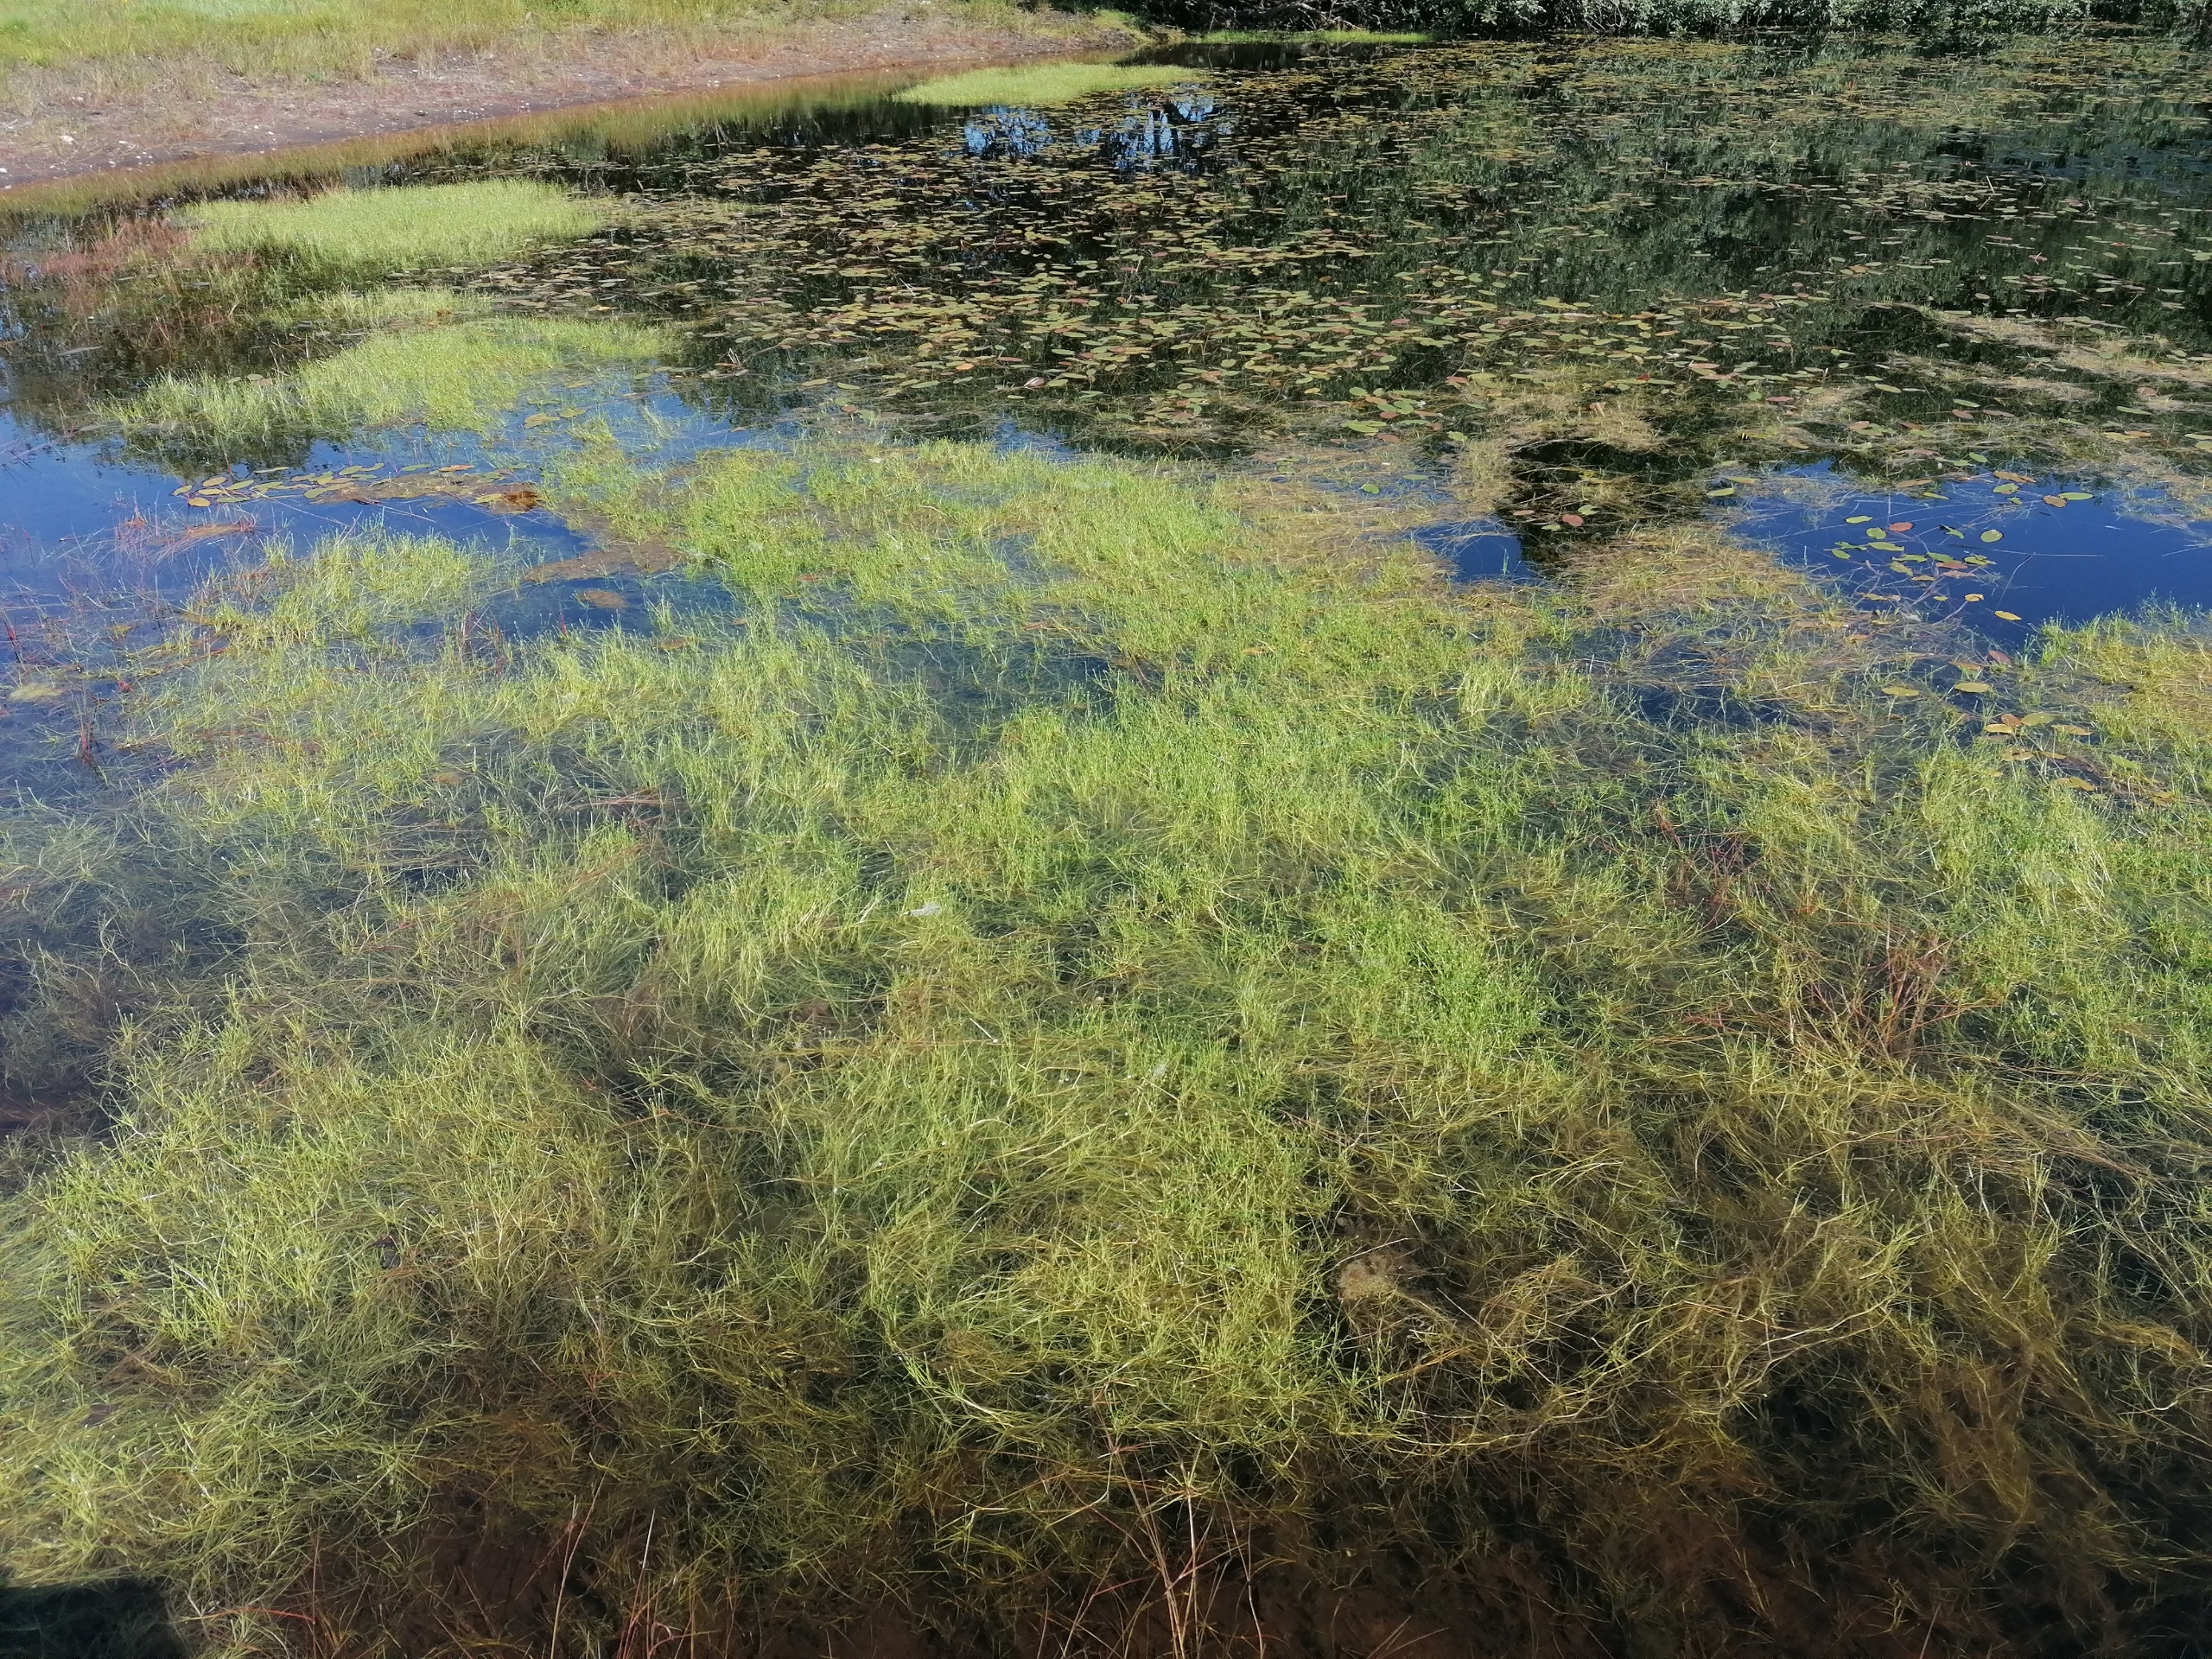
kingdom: Plantae
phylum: Tracheophyta
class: Liliopsida
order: Poales
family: Cyperaceae
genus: Isolepis
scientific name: Isolepis fluitans
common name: Flydende kogleaks
